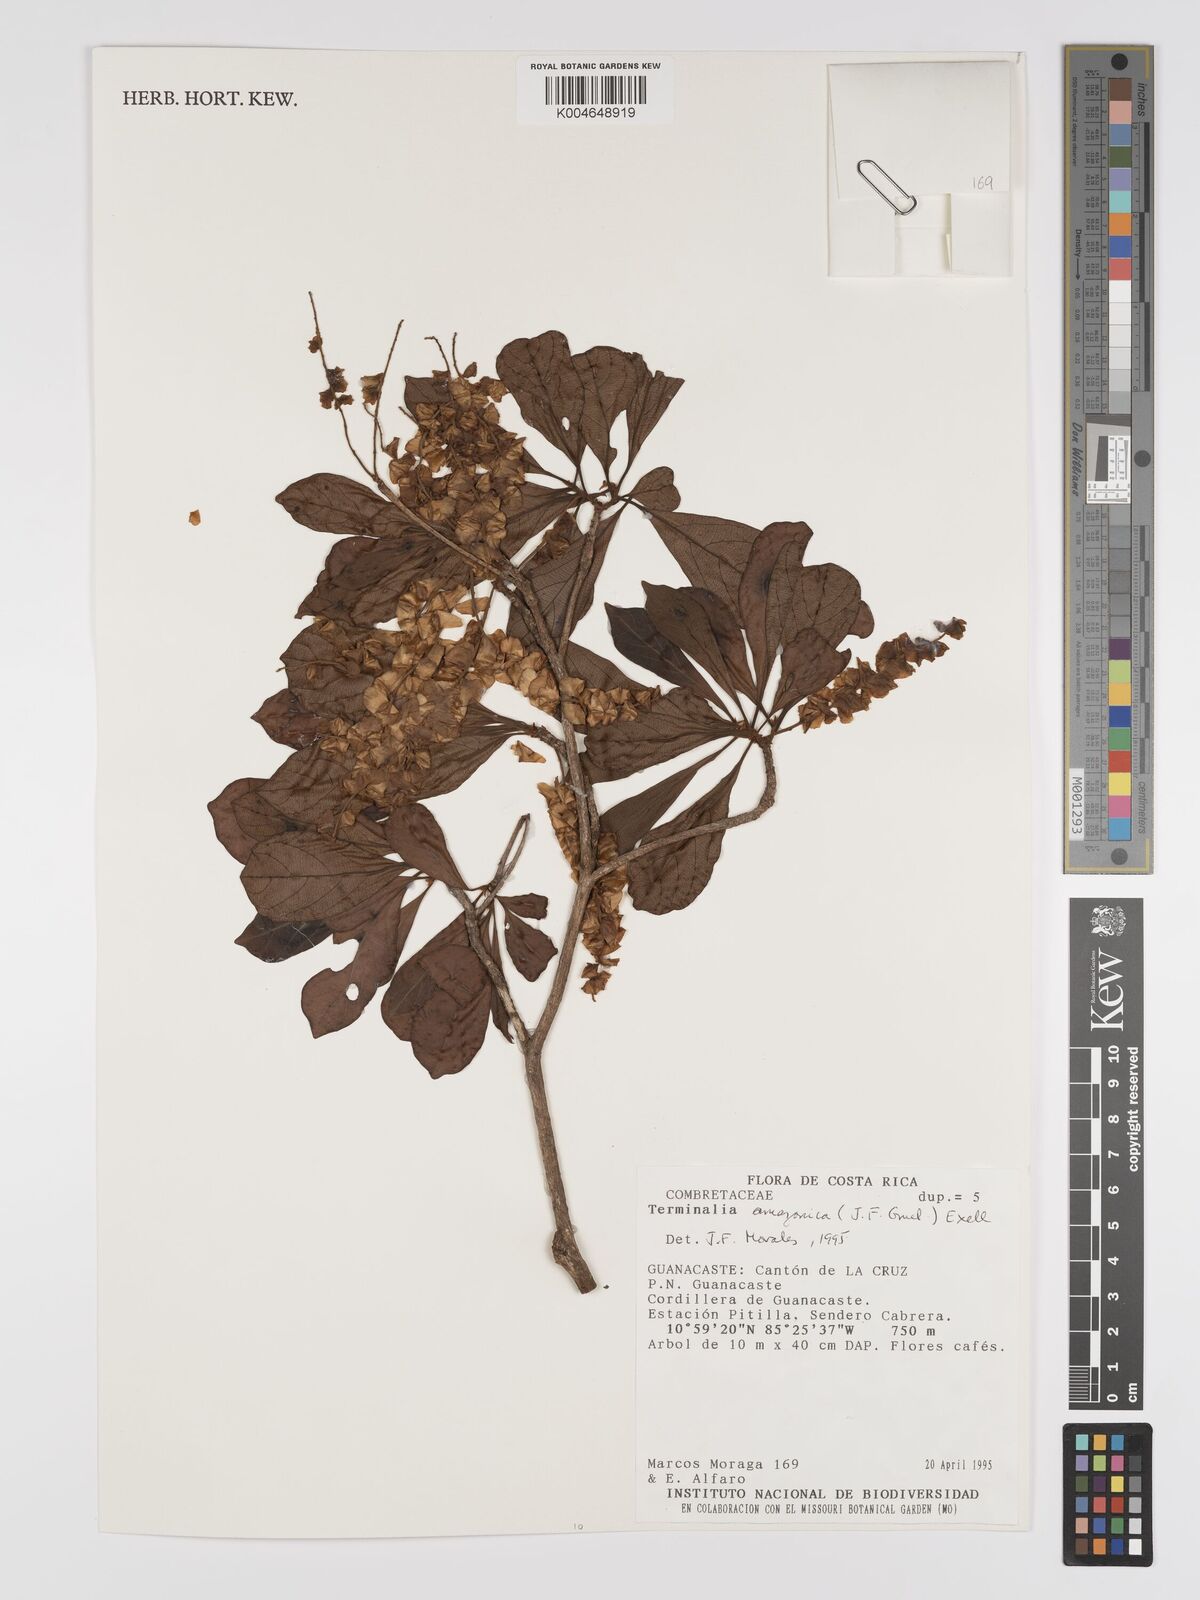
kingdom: Plantae
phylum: Tracheophyta
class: Magnoliopsida
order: Myrtales
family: Combretaceae
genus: Terminalia
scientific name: Terminalia amazonica
